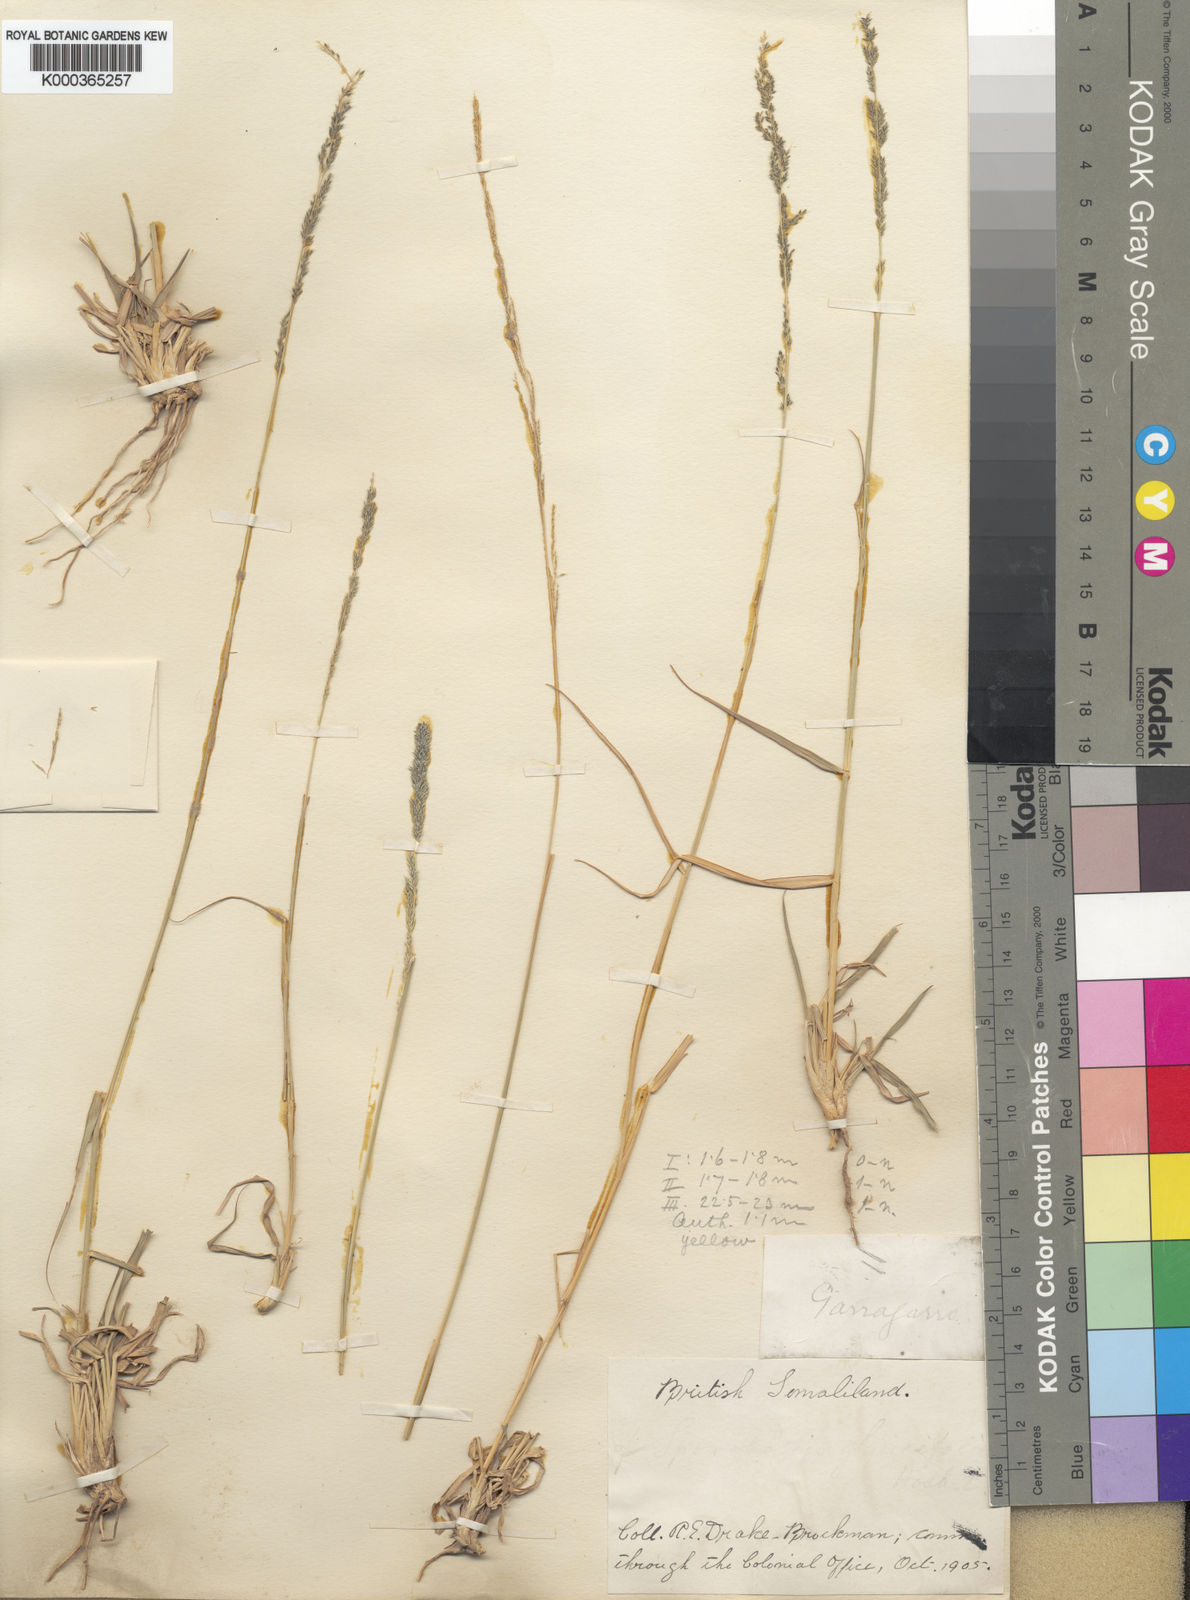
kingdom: Plantae
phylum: Tracheophyta
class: Liliopsida
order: Poales
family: Poaceae
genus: Sporobolus
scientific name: Sporobolus brockmanii
